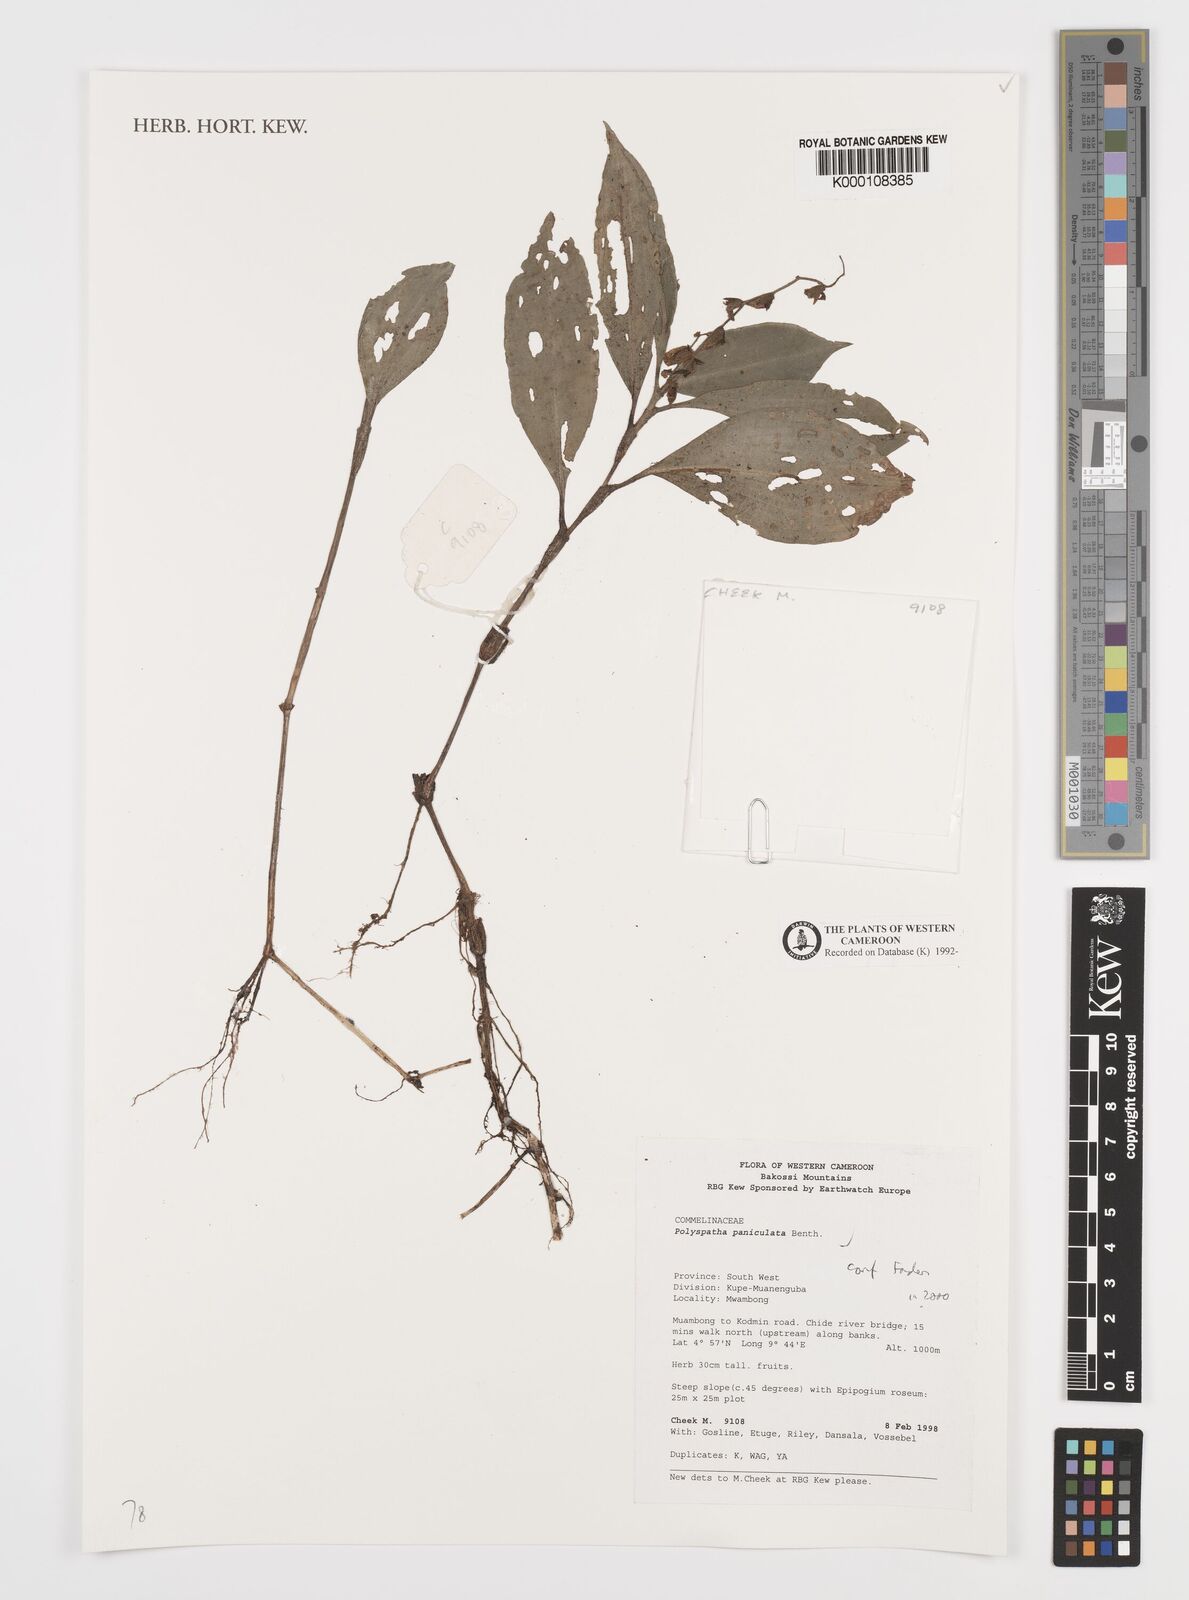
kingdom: Plantae
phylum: Tracheophyta
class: Liliopsida
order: Commelinales
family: Commelinaceae
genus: Polyspatha
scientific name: Polyspatha paniculata
